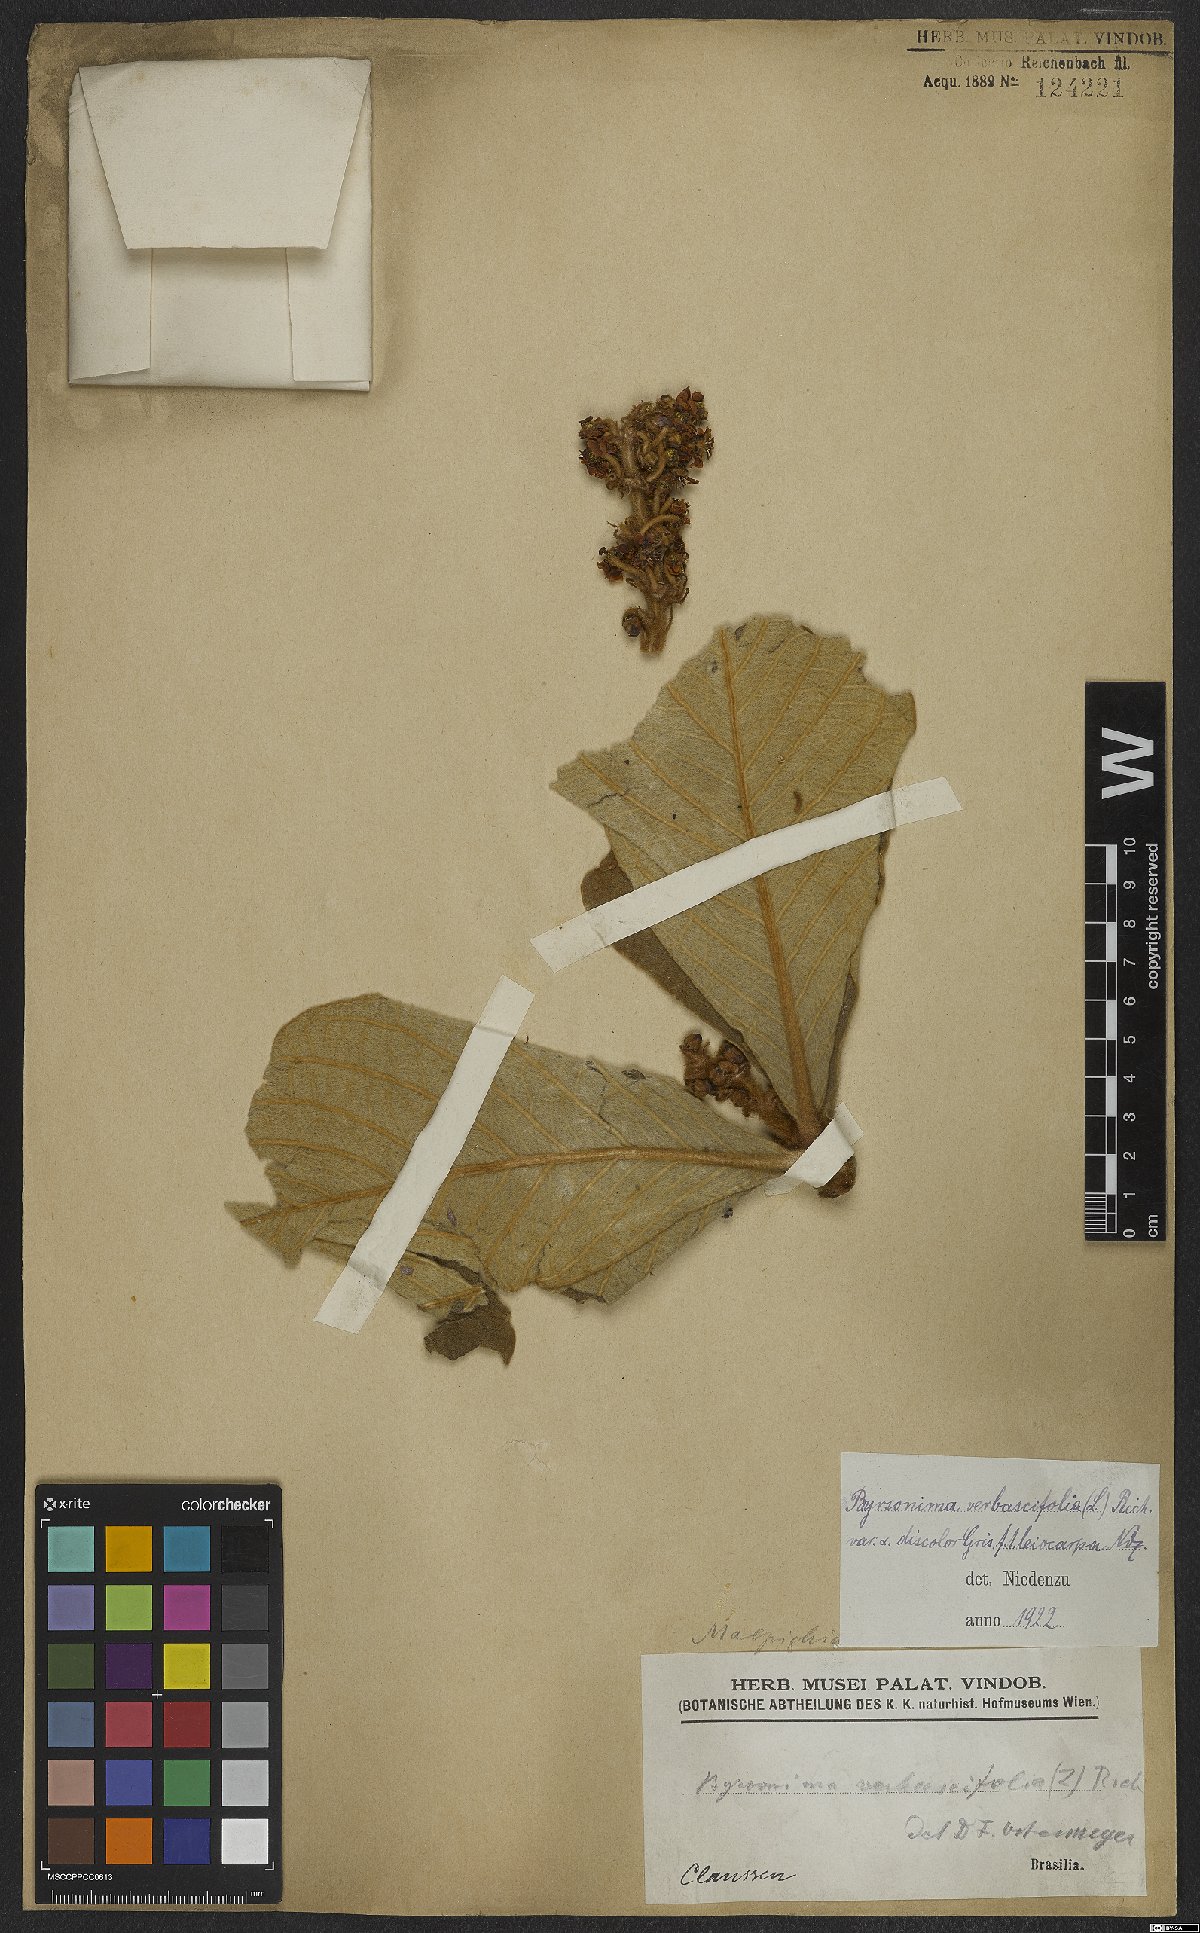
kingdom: Plantae
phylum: Tracheophyta
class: Magnoliopsida
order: Malpighiales
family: Malpighiaceae
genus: Byrsonima
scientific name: Byrsonima verbascifolia
